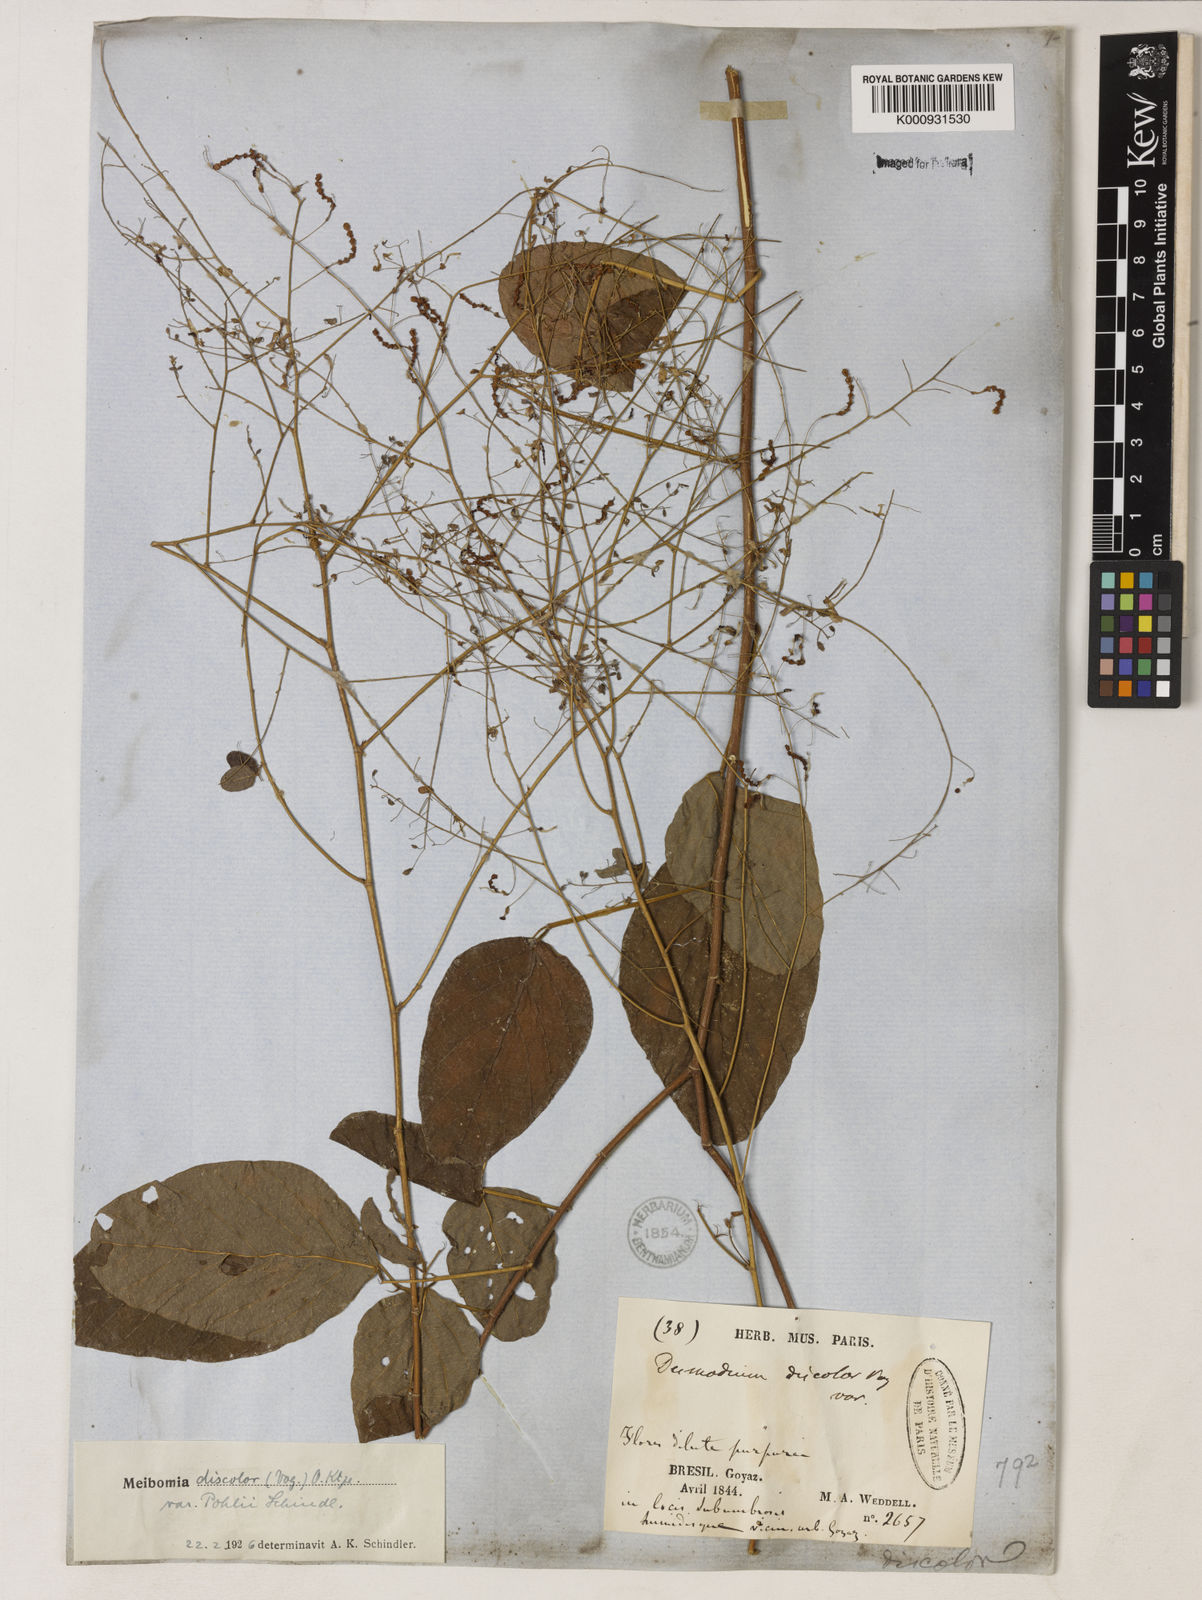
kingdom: Plantae
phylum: Tracheophyta
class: Magnoliopsida
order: Fabales
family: Fabaceae
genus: Desmodium
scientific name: Desmodium subsecundum
